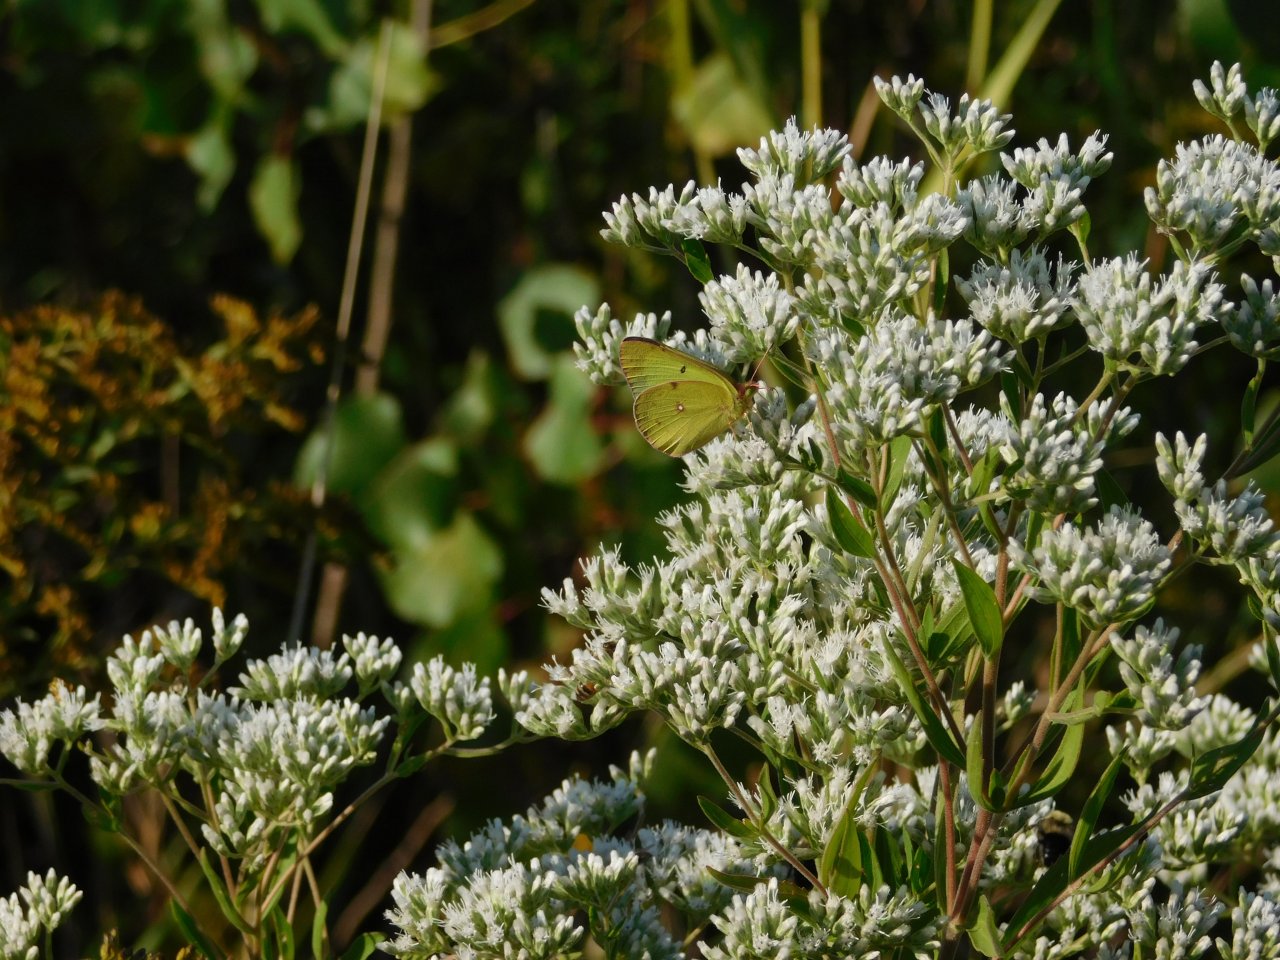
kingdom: Animalia
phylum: Arthropoda
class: Insecta
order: Lepidoptera
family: Pieridae
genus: Colias
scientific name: Colias philodice
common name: Clouded Sulphur
